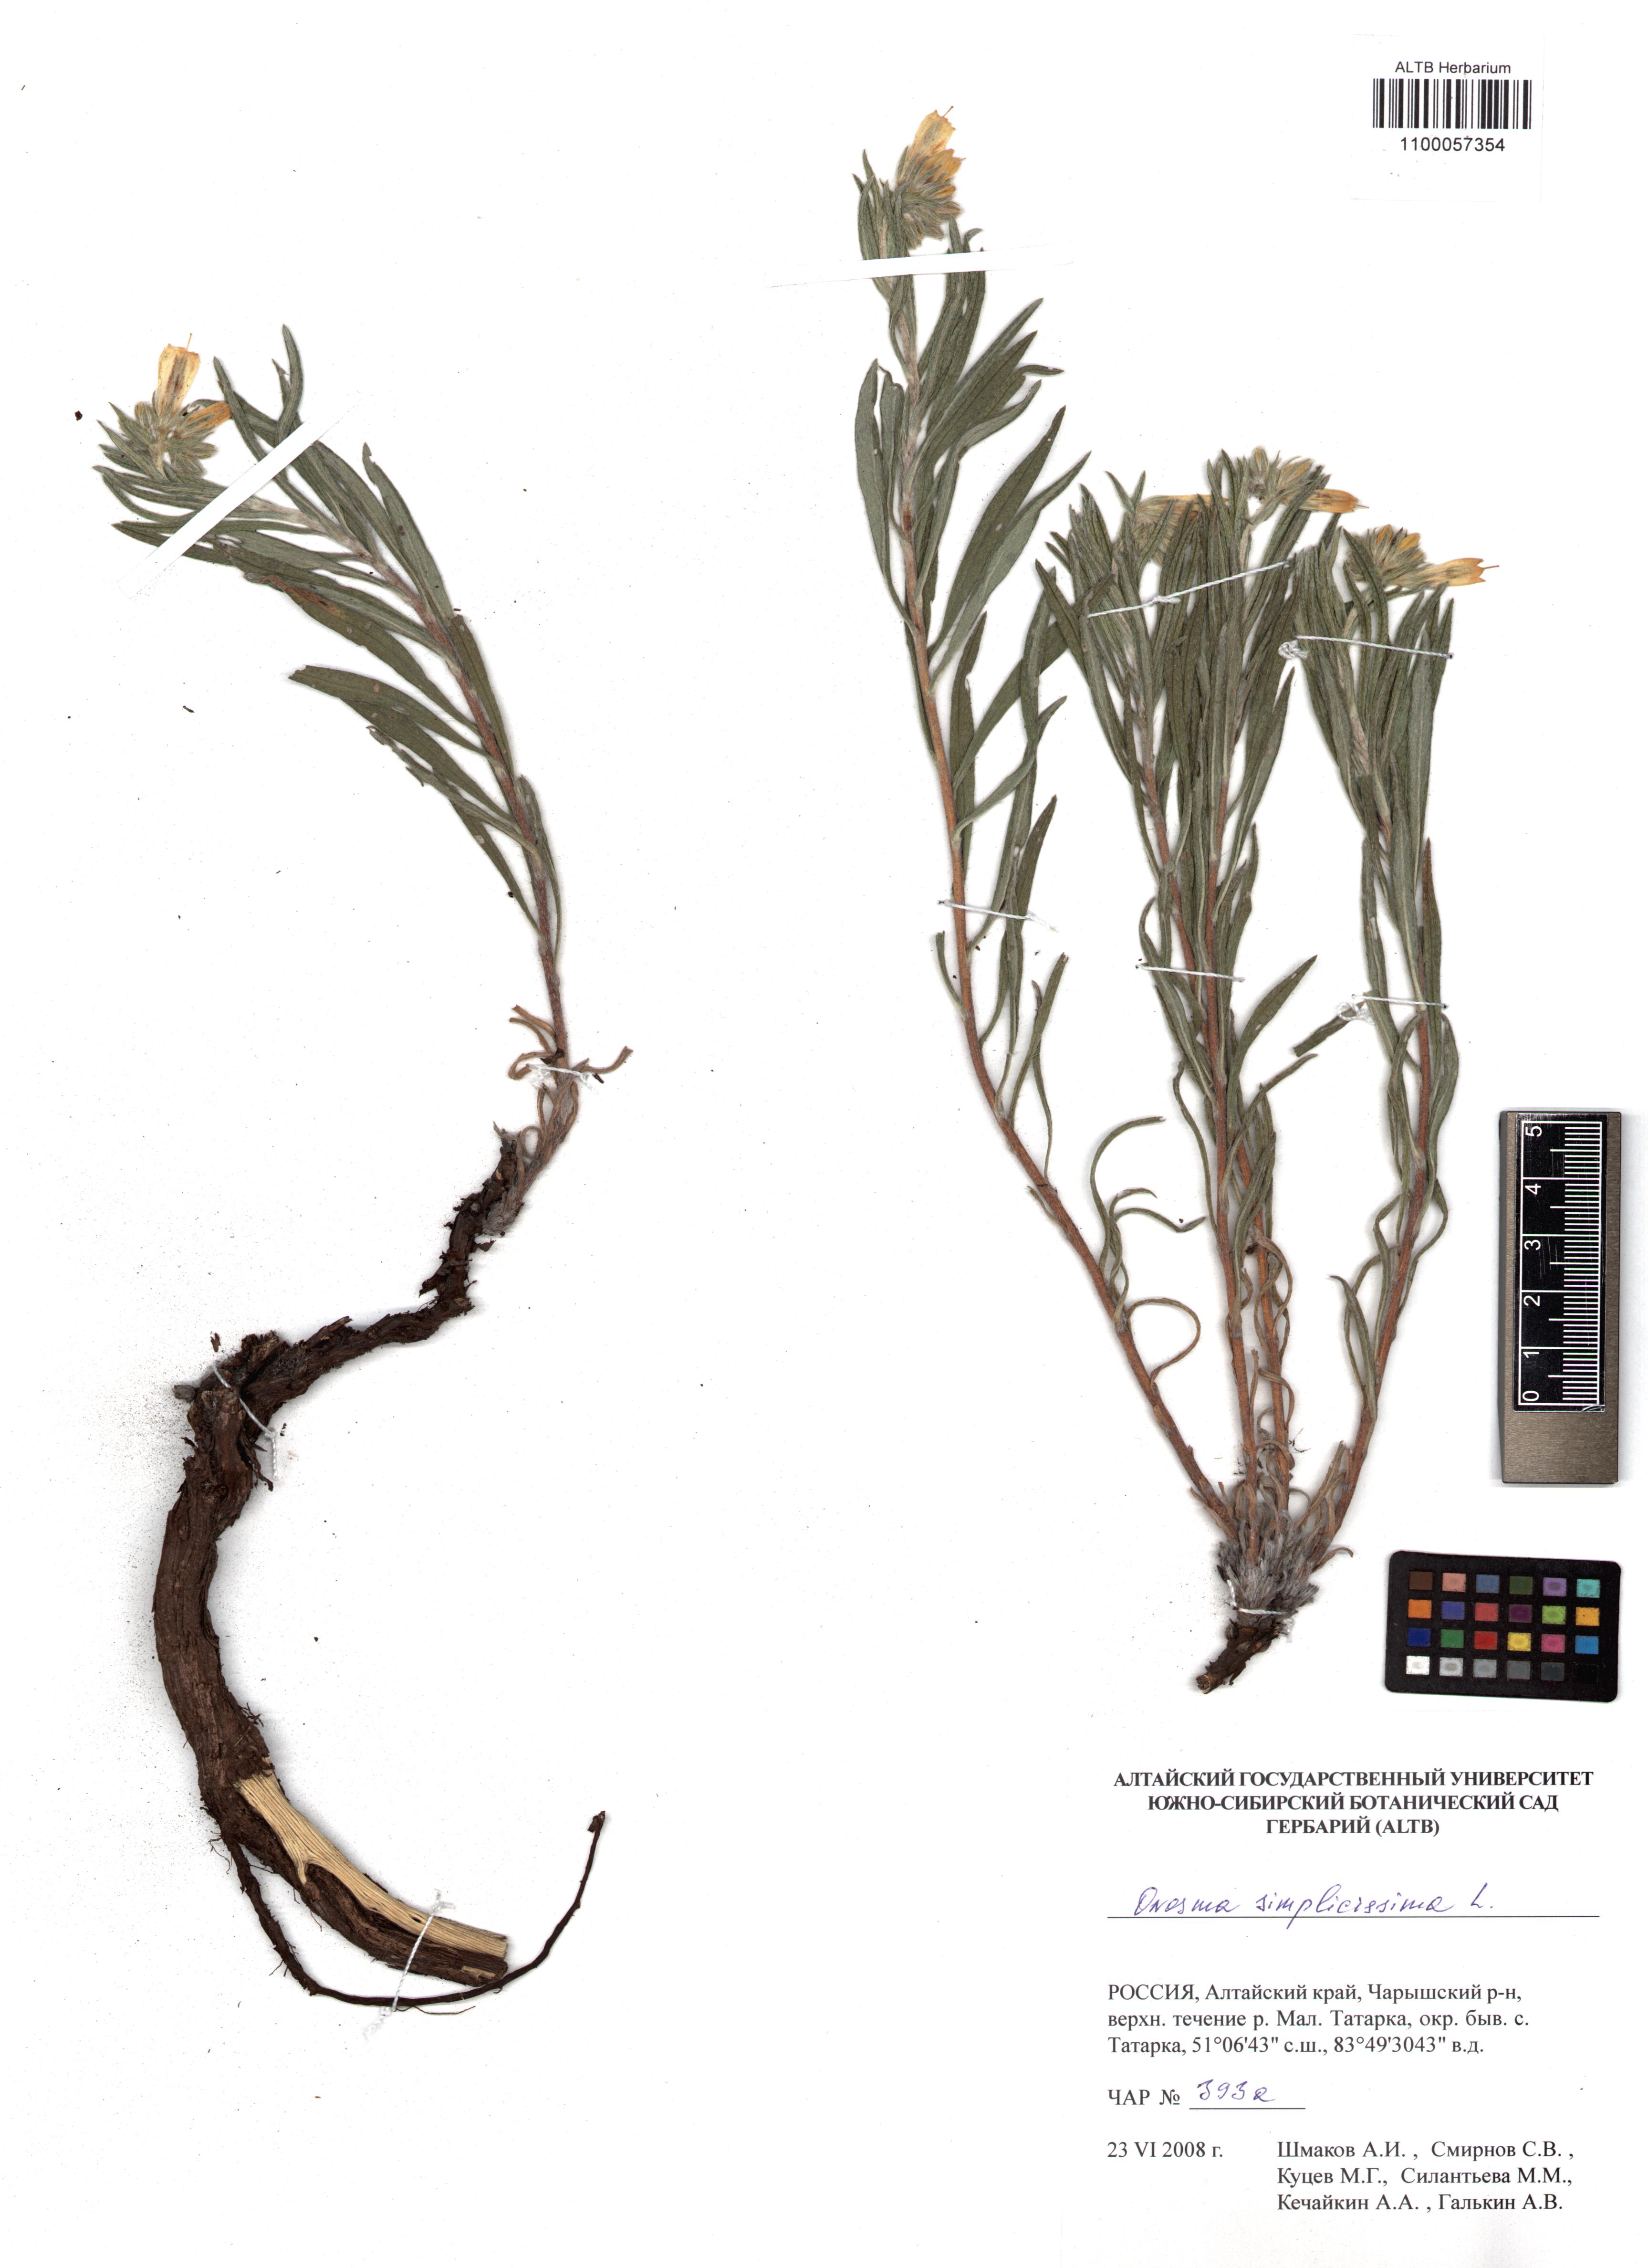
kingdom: Plantae
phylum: Tracheophyta
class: Magnoliopsida
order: Boraginales
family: Boraginaceae
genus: Onosma
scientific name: Onosma simplicissima
